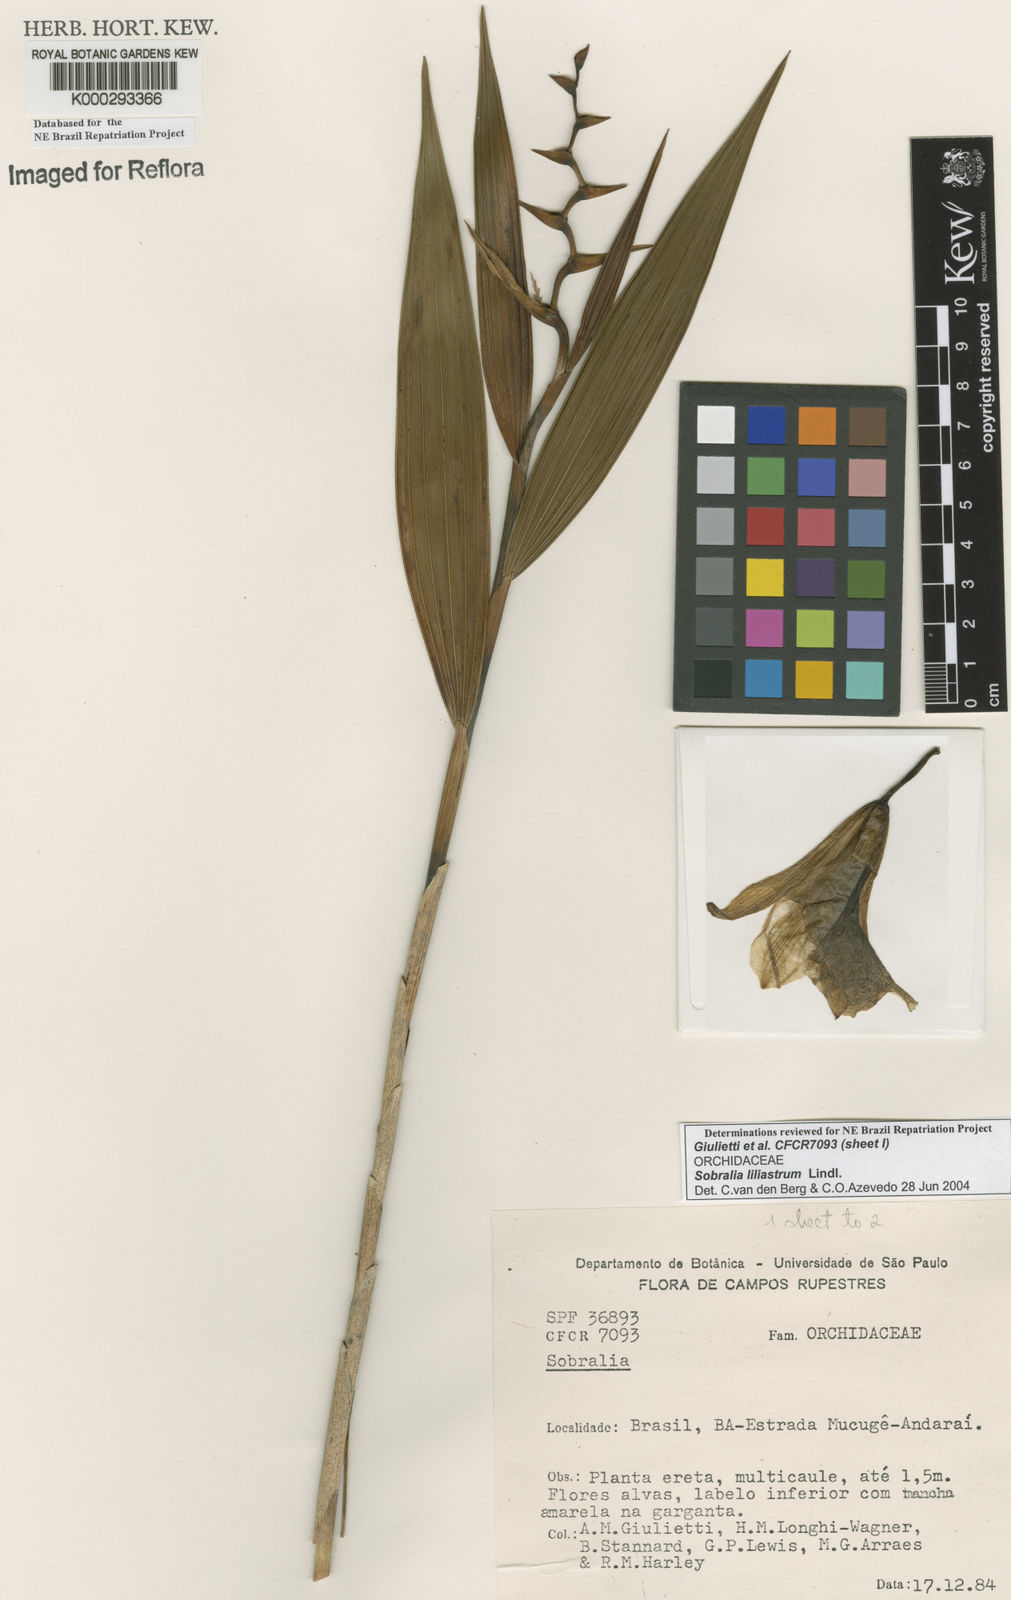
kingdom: Plantae
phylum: Tracheophyta
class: Liliopsida
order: Asparagales
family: Orchidaceae
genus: Sobralia
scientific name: Sobralia liliastrum
